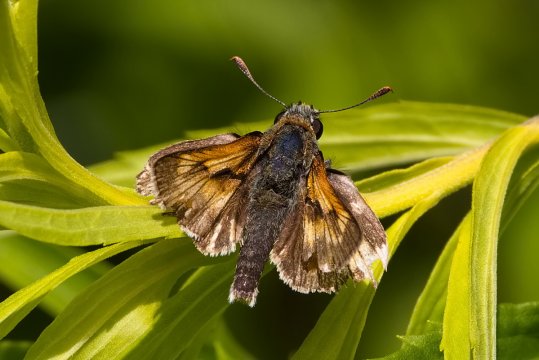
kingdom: Animalia
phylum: Arthropoda
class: Insecta
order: Lepidoptera
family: Hesperiidae
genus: Polites
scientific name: Polites coras
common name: Peck's Skipper
